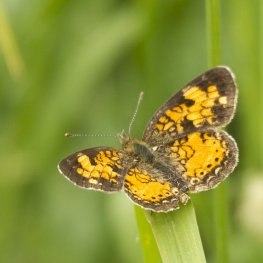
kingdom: Animalia
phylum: Arthropoda
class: Insecta
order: Lepidoptera
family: Nymphalidae
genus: Phyciodes
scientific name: Phyciodes tharos
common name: Northern Crescent
